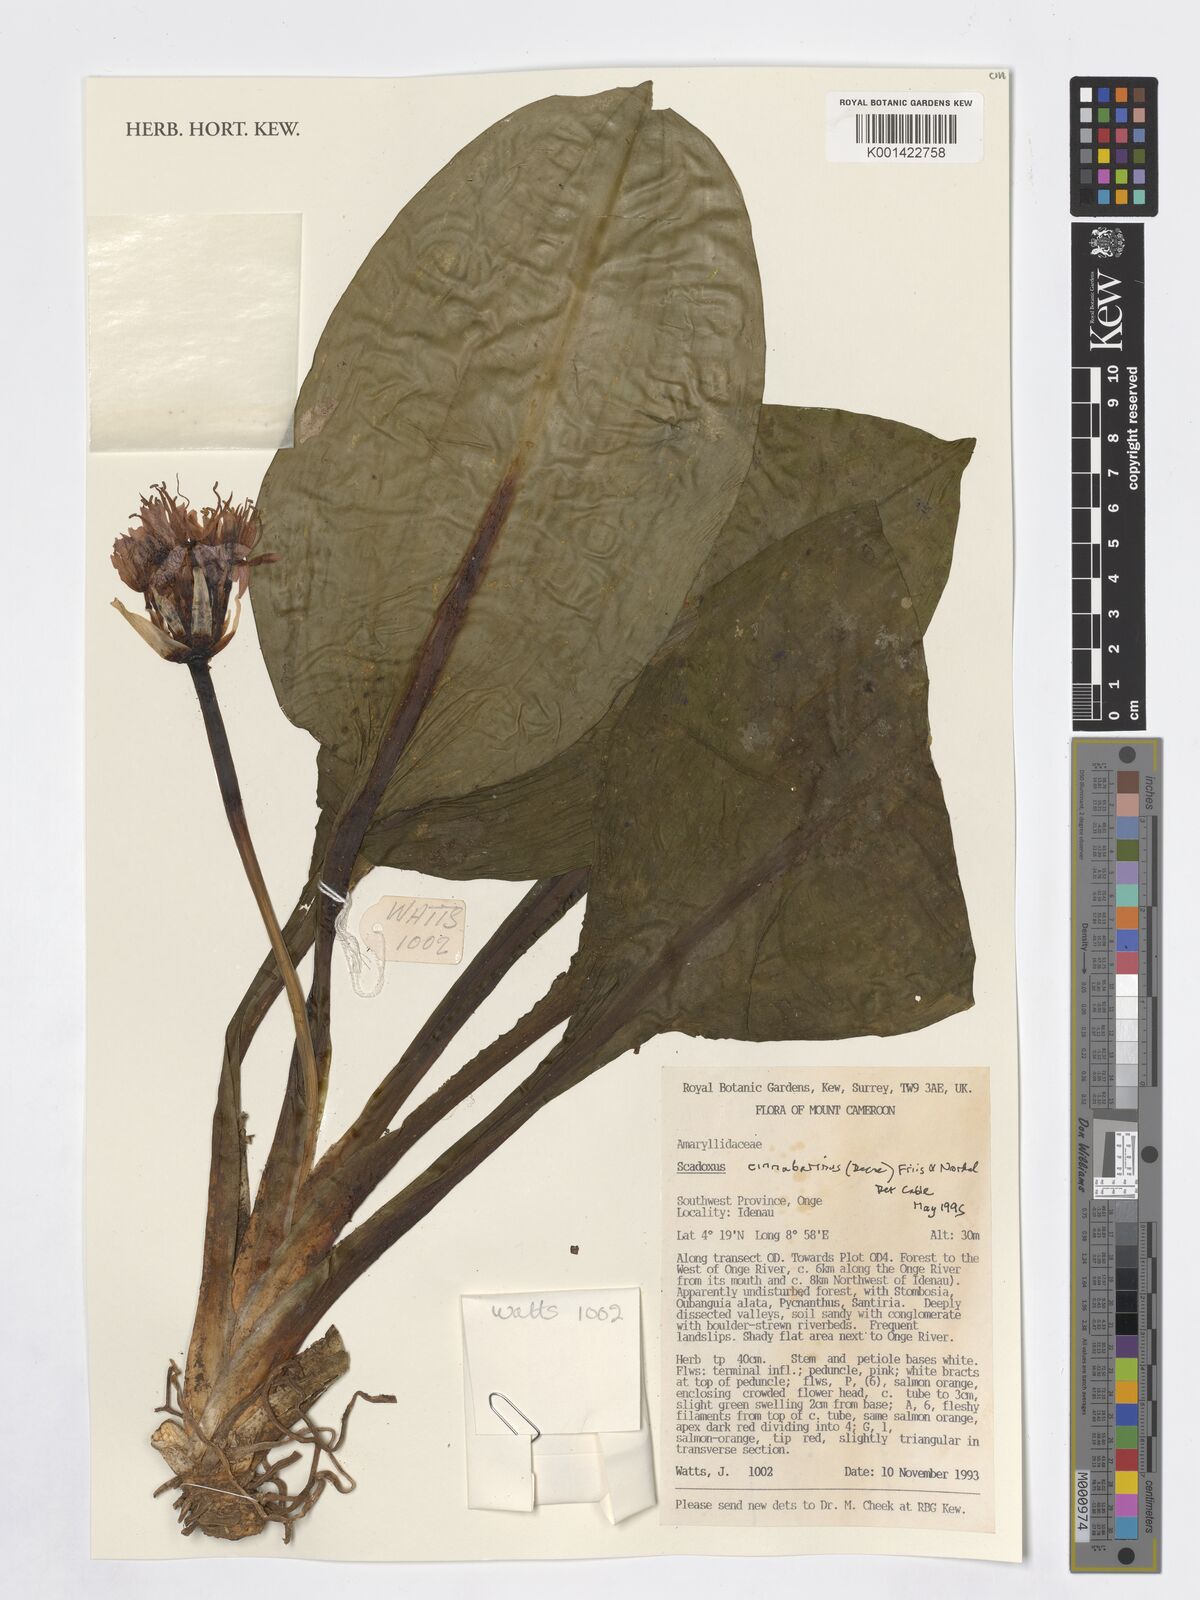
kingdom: Plantae
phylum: Tracheophyta
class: Liliopsida
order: Asparagales
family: Amaryllidaceae
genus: Scadoxus
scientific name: Scadoxus cinnabarinus
